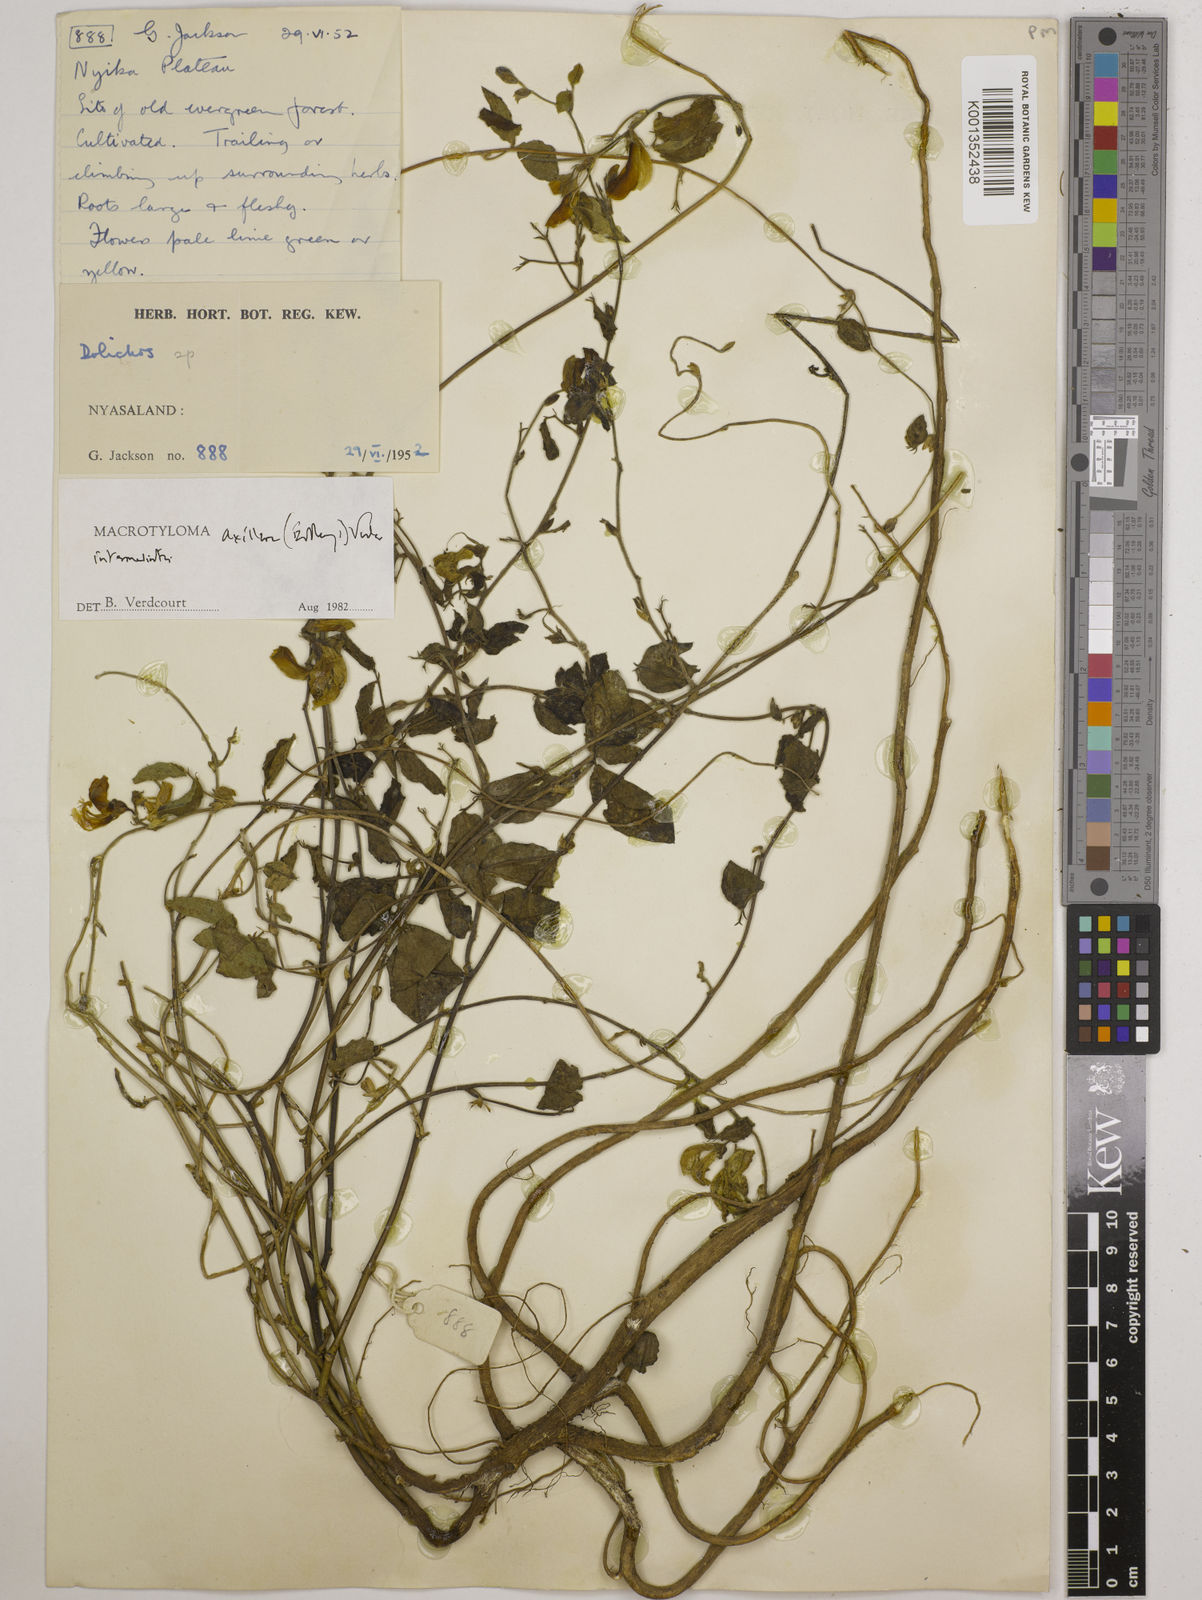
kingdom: Plantae
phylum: Tracheophyta
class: Magnoliopsida
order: Fabales
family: Fabaceae
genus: Macrotyloma
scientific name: Macrotyloma axillare
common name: Perennial horsegram
